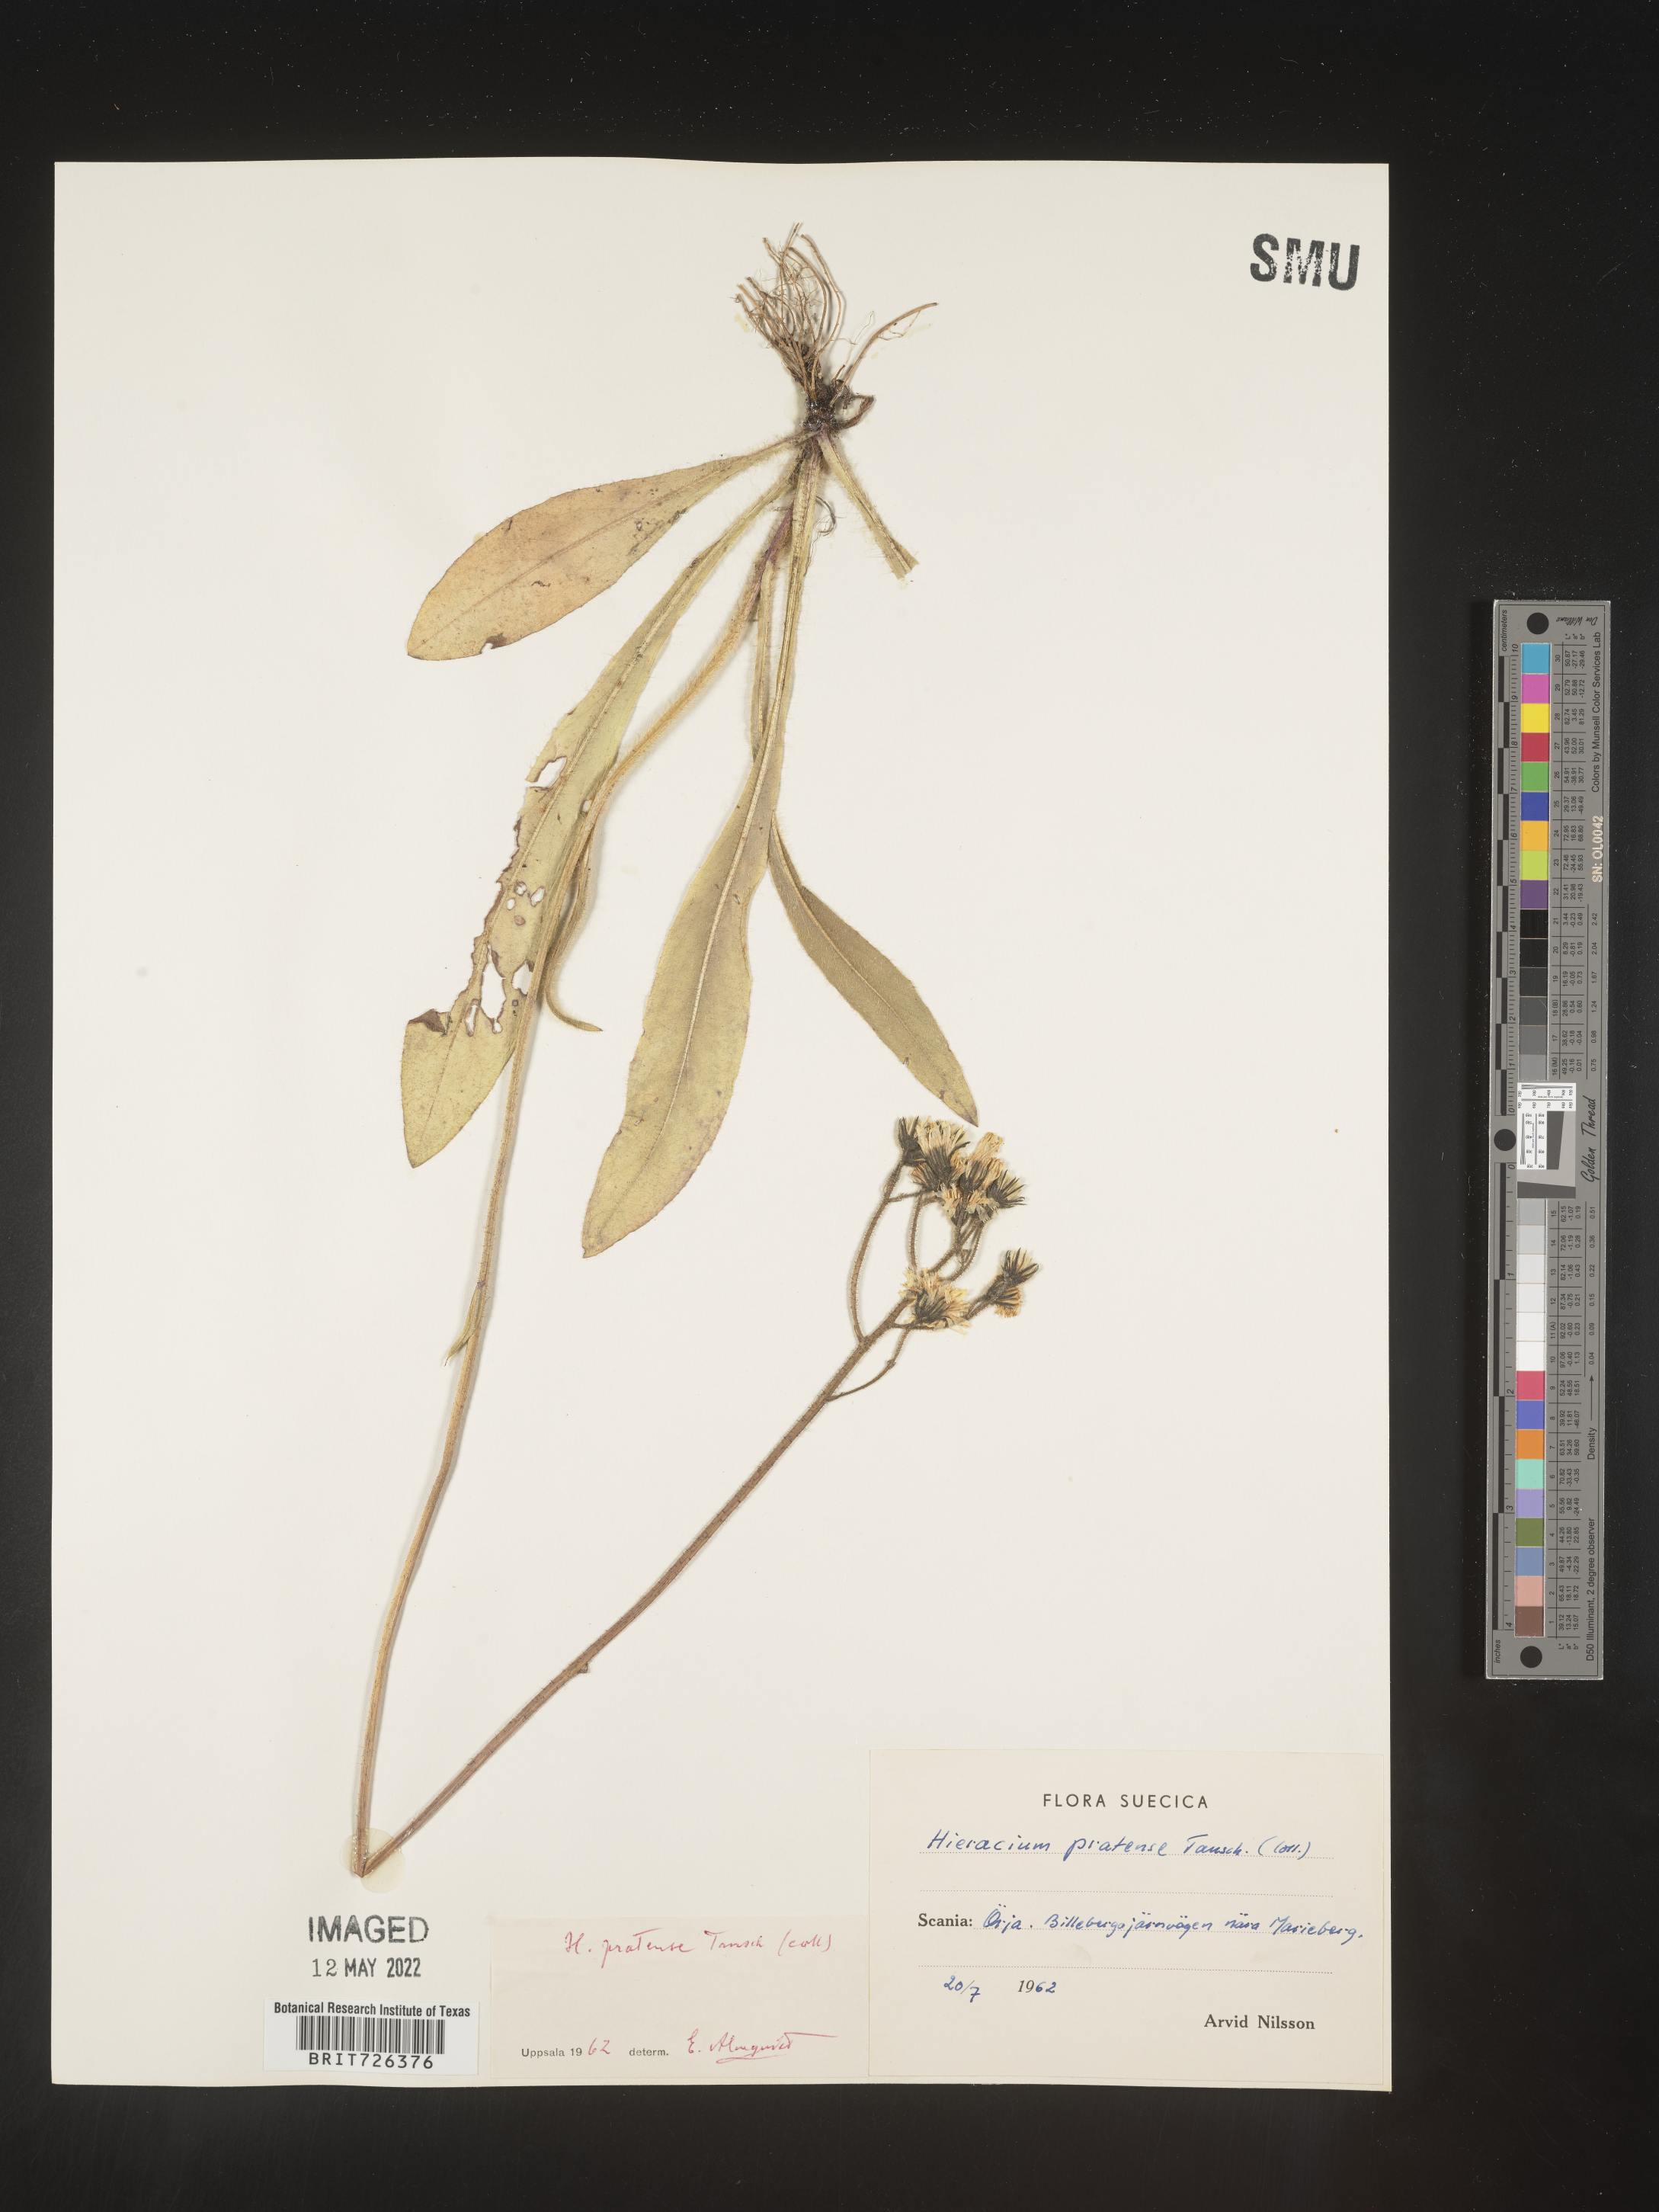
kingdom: Plantae
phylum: Tracheophyta
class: Magnoliopsida
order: Asterales
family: Asteraceae
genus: Hieracium
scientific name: Hieracium
